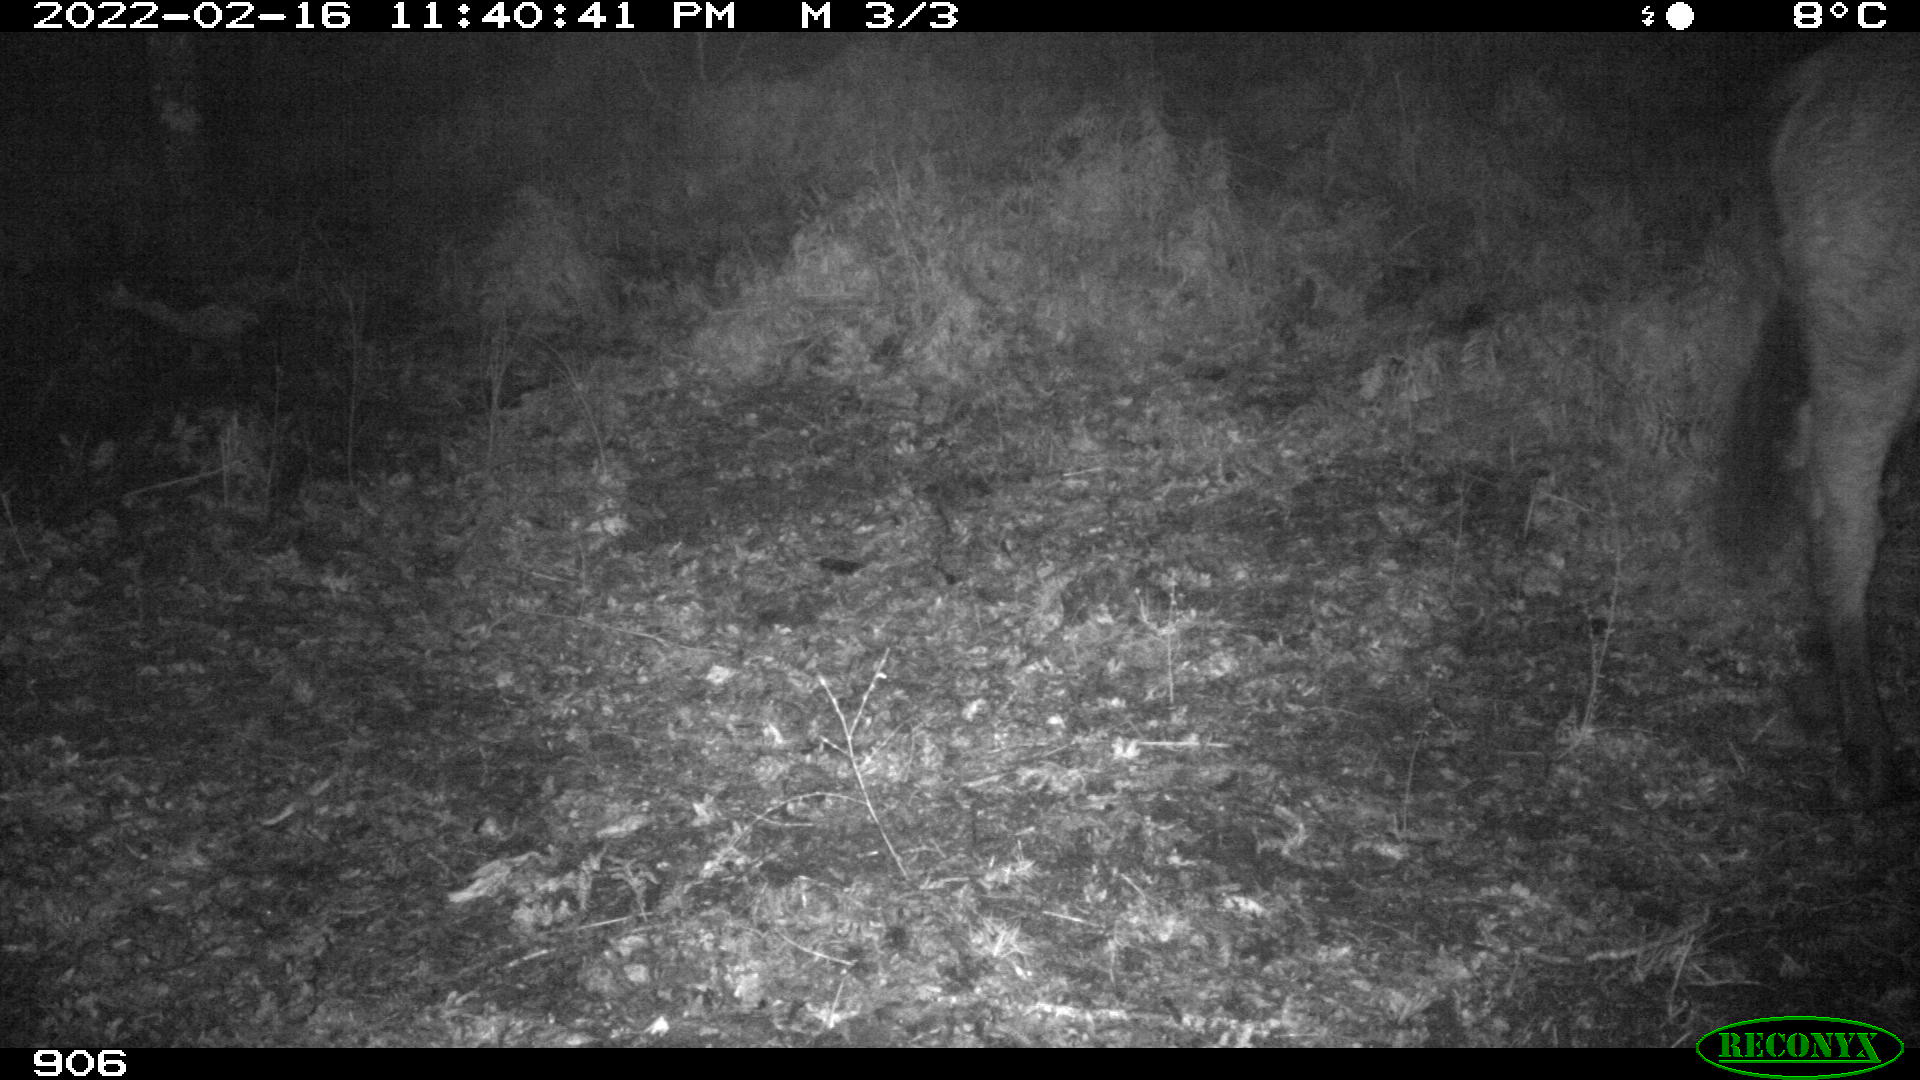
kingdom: Animalia
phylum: Chordata
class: Mammalia
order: Perissodactyla
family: Equidae
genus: Equus
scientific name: Equus caballus
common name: Horse
